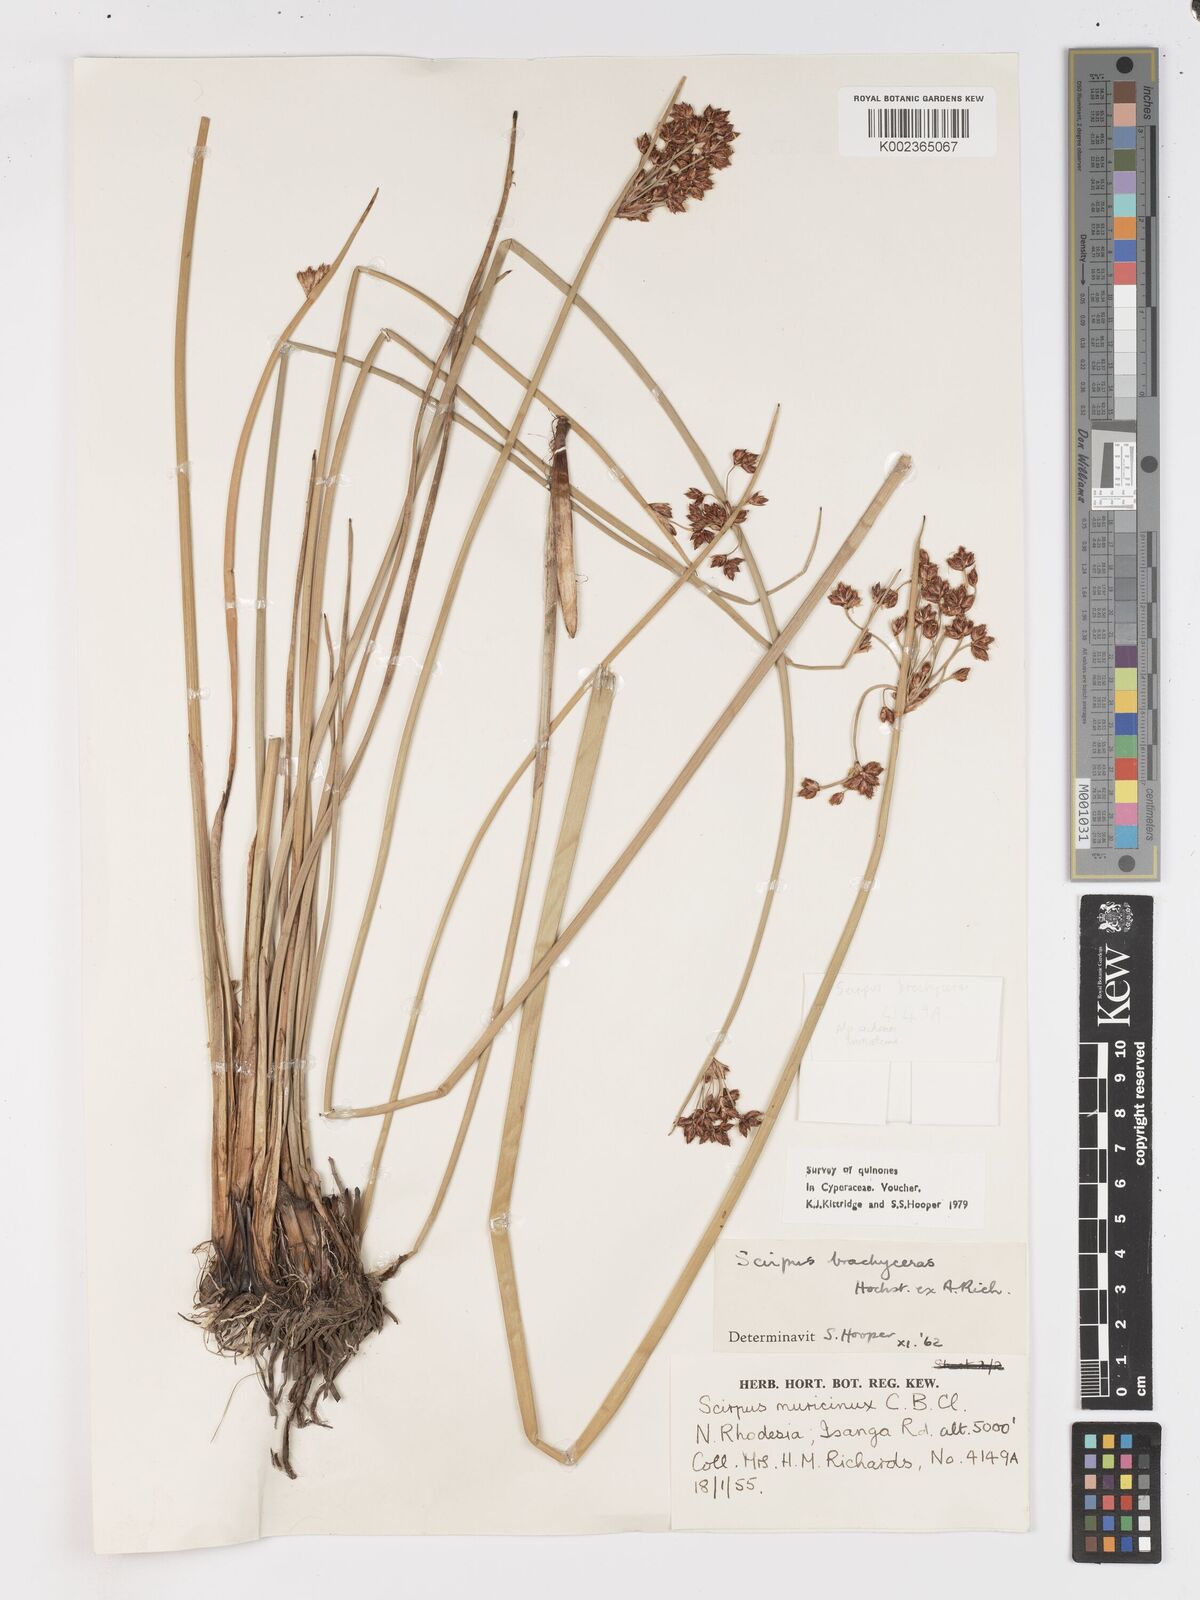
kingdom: Plantae
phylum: Tracheophyta
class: Liliopsida
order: Poales
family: Cyperaceae
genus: Schoenoplectiella
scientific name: Schoenoplectiella brachyceras
